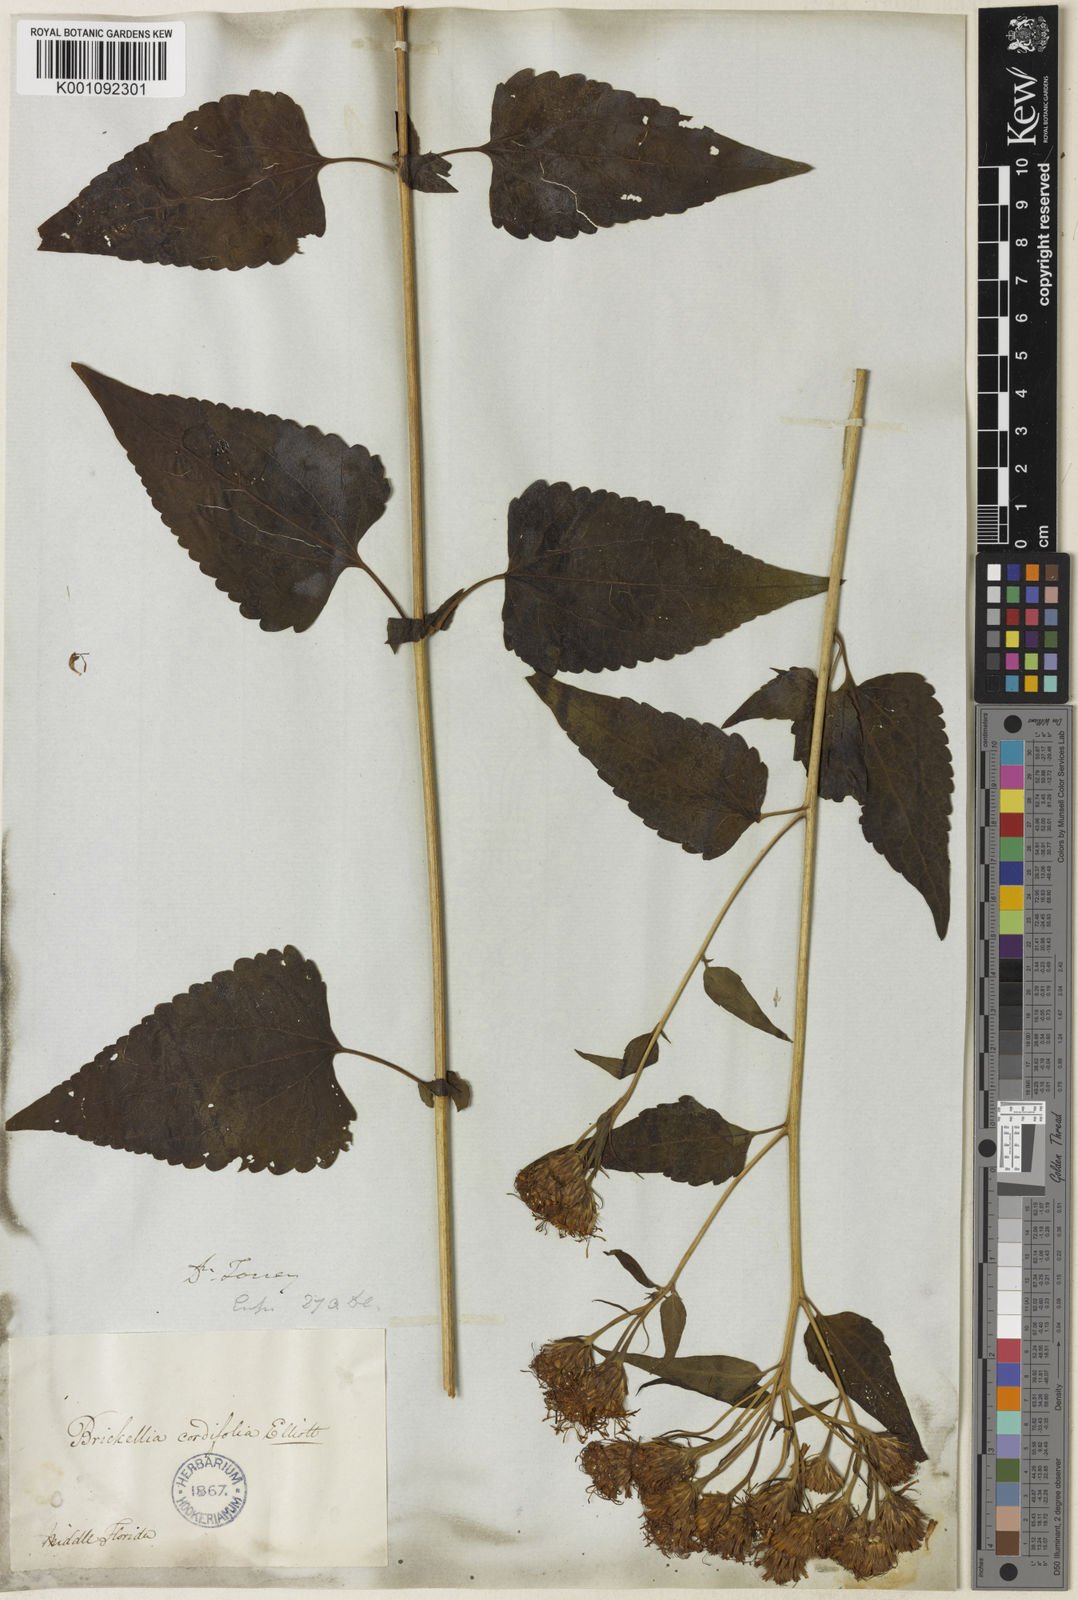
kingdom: Plantae
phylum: Tracheophyta
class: Magnoliopsida
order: Asterales
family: Asteraceae
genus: Brickellia
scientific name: Brickellia cordifolia
